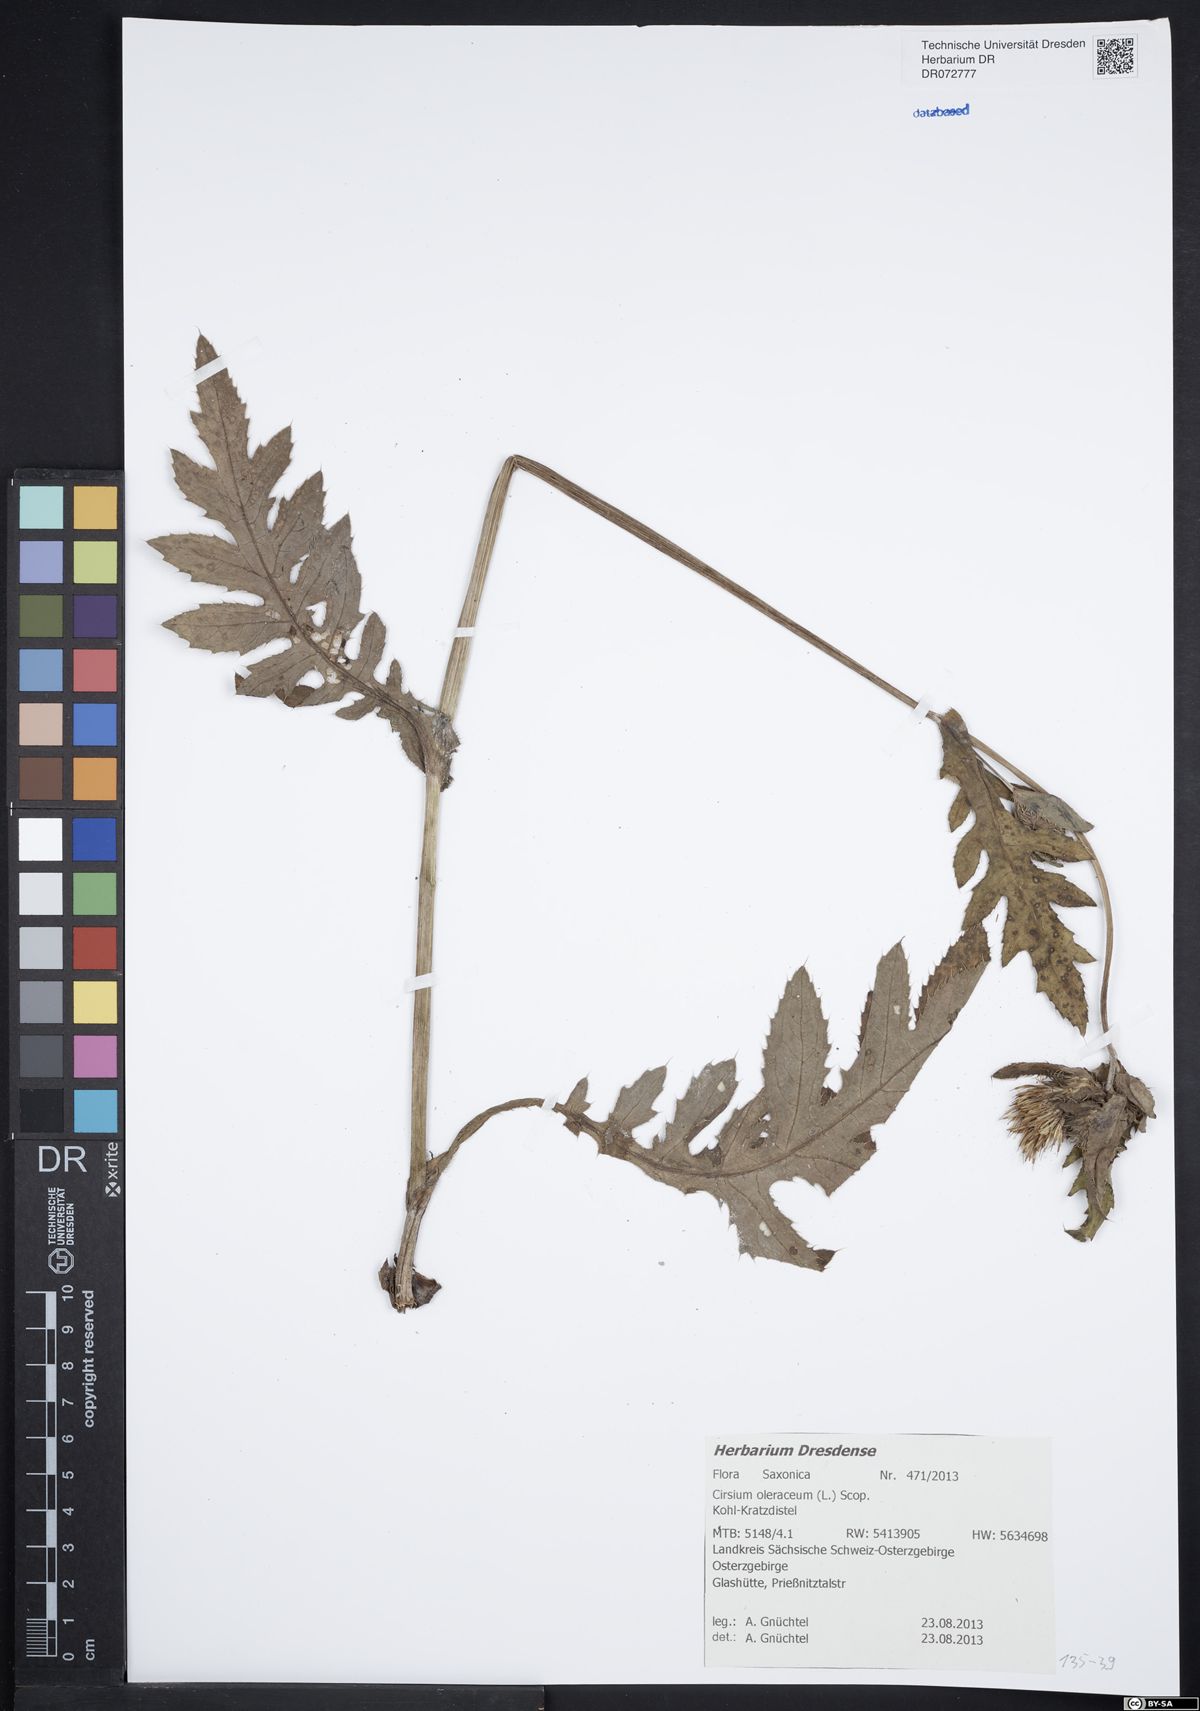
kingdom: Plantae
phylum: Tracheophyta
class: Magnoliopsida
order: Asterales
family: Asteraceae
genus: Cirsium
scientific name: Cirsium oleraceum
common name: Cabbage thistle
